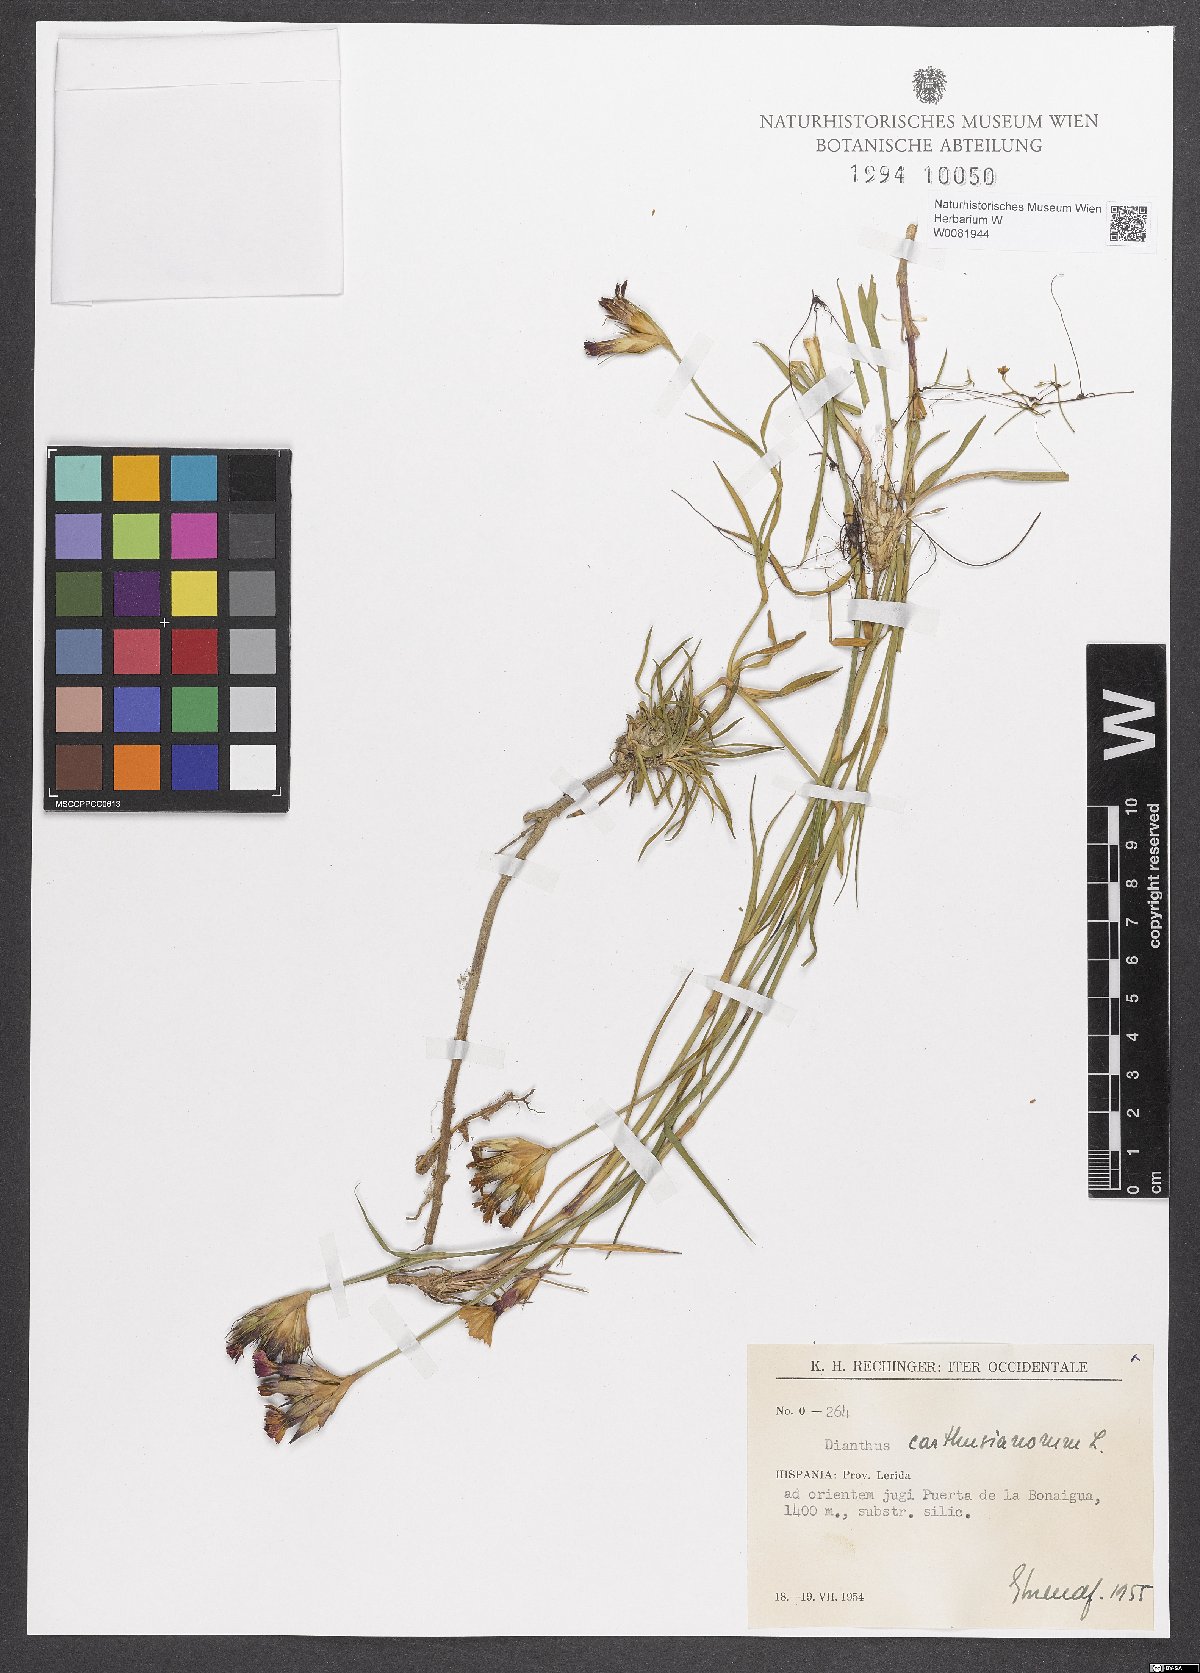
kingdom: Plantae
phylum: Tracheophyta
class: Magnoliopsida
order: Caryophyllales
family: Caryophyllaceae
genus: Dianthus
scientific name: Dianthus carthusianorum
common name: Carthusian pink
